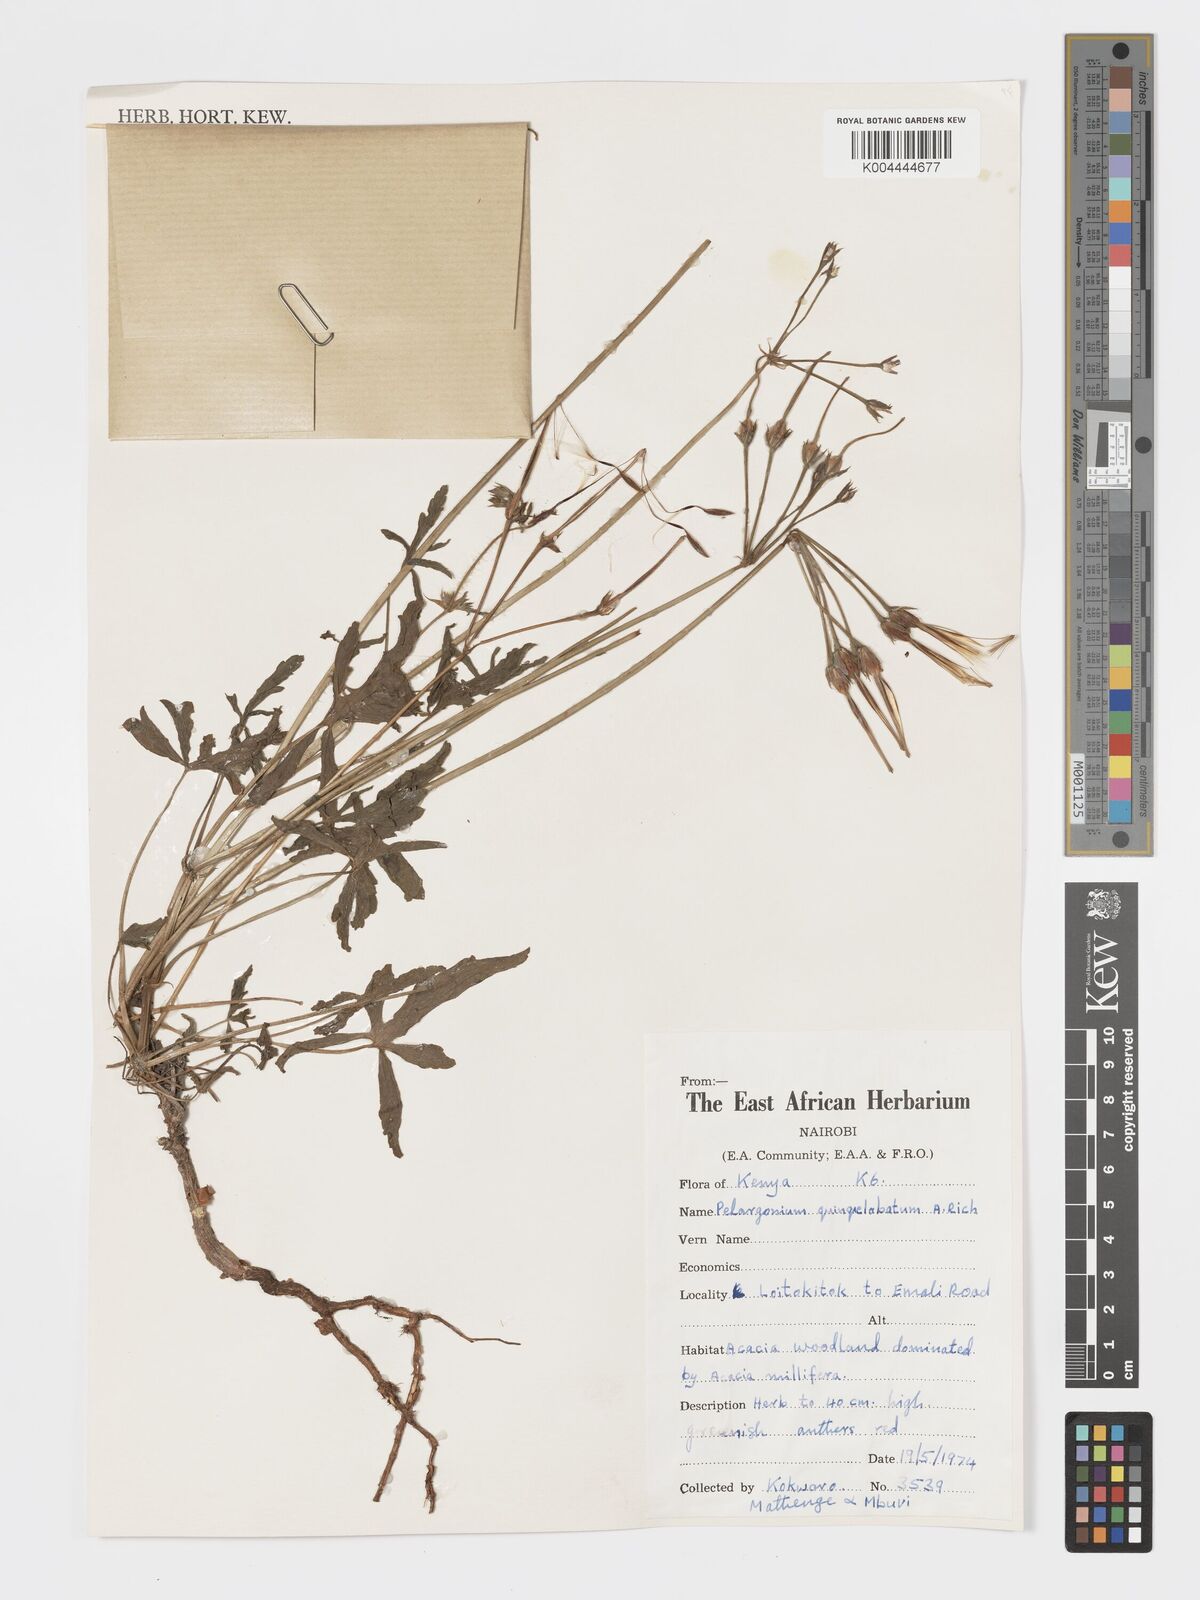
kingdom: Plantae
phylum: Tracheophyta
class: Magnoliopsida
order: Geraniales
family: Geraniaceae
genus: Pelargonium
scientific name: Pelargonium quinquelobatum
